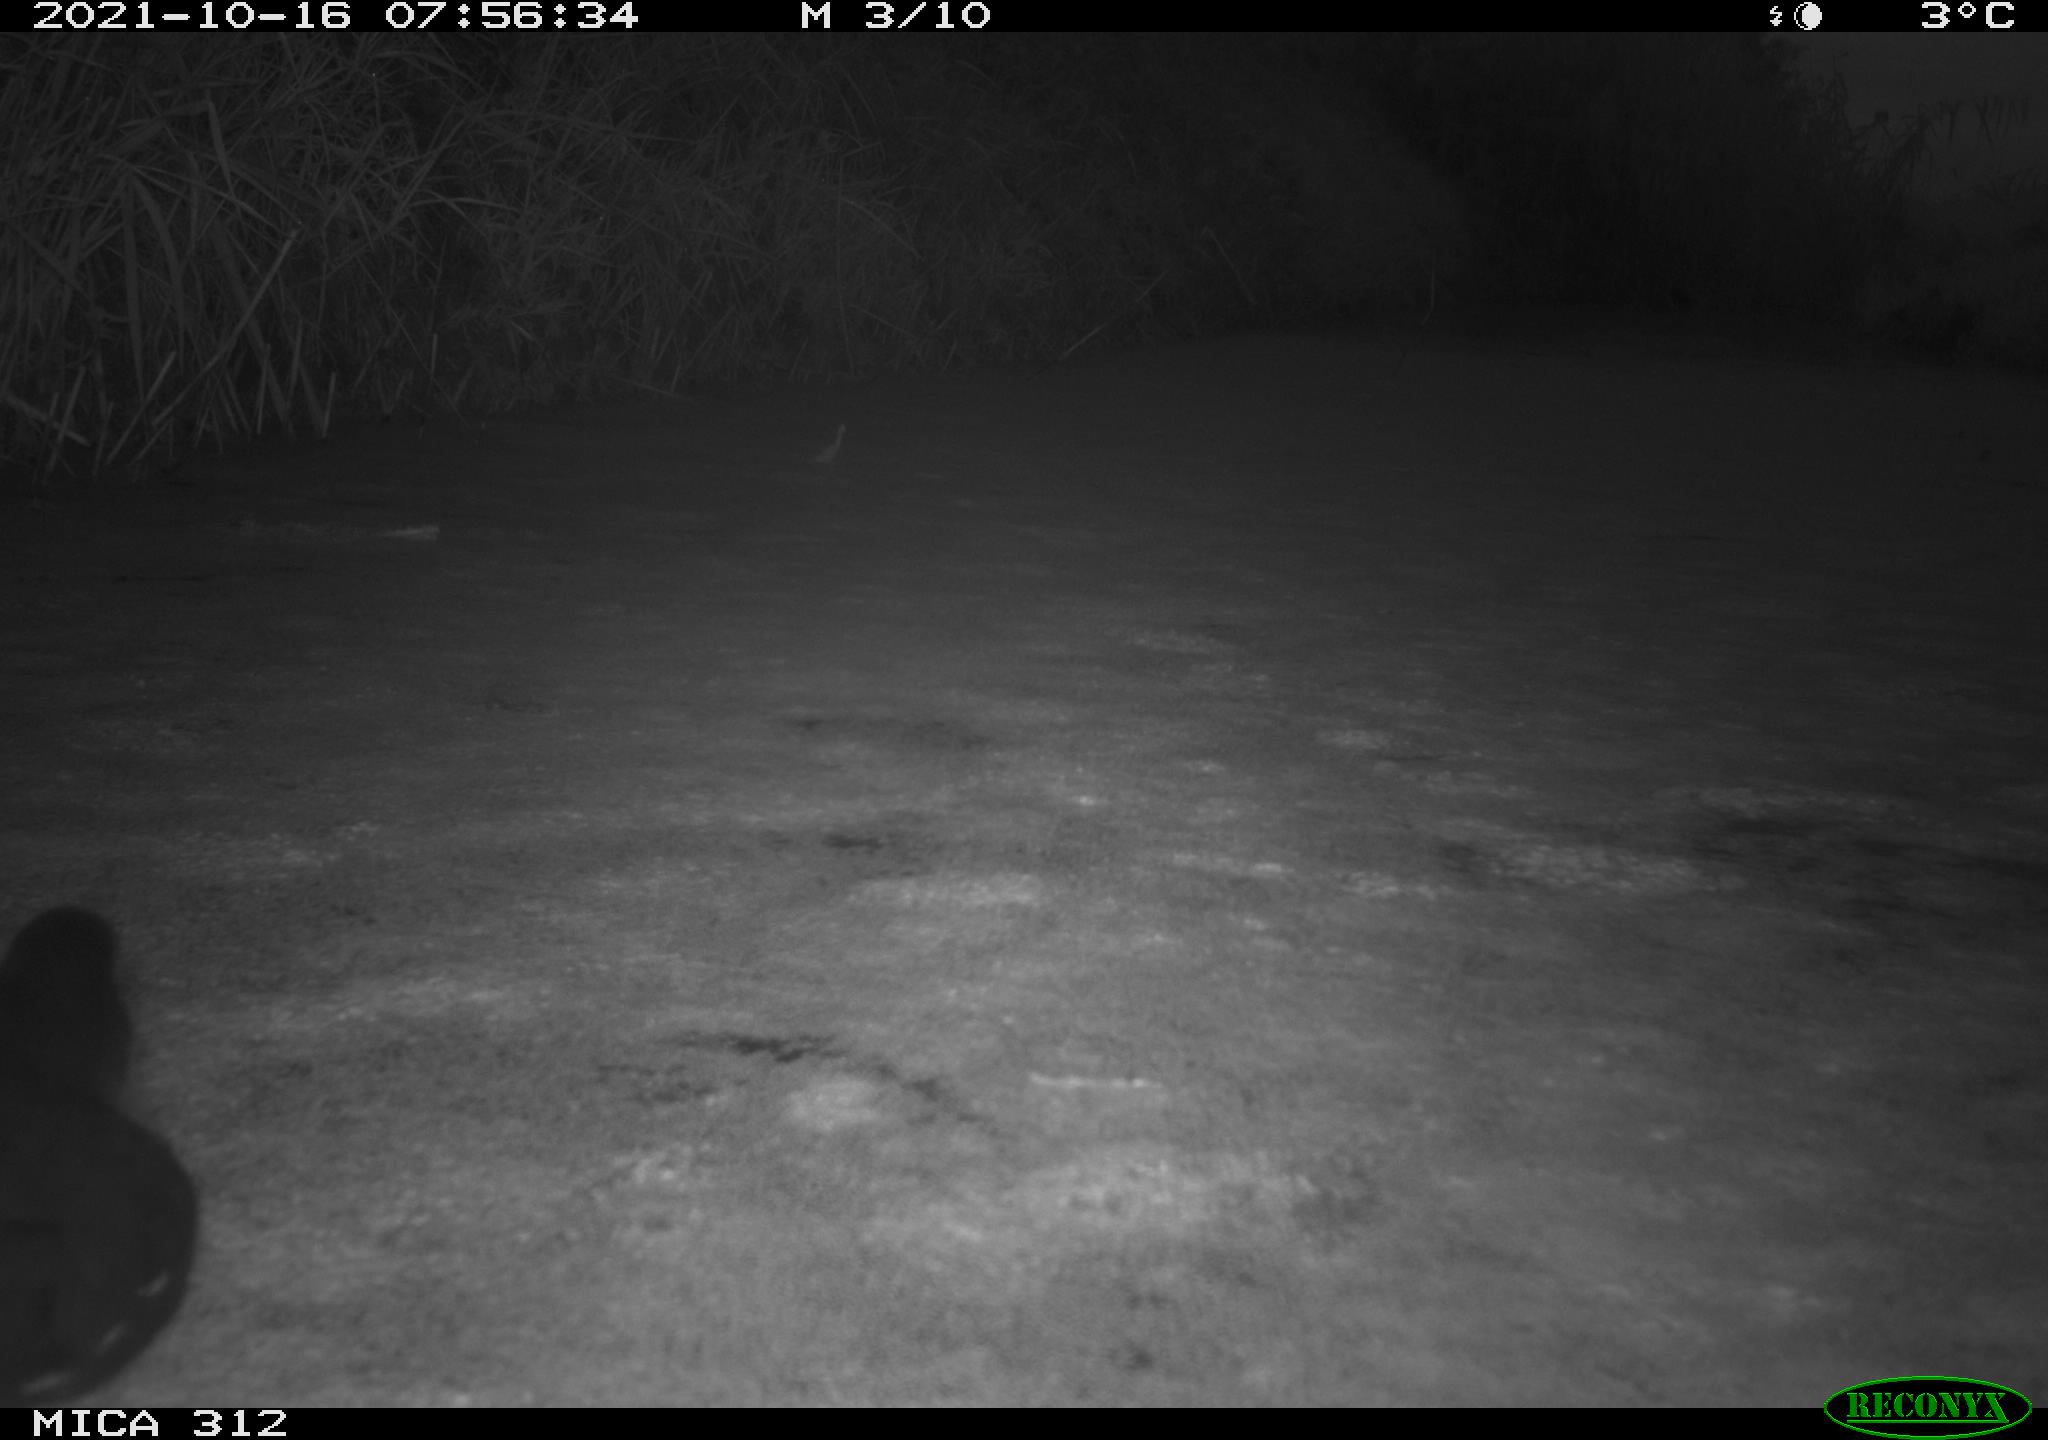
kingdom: Animalia
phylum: Chordata
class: Aves
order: Gruiformes
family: Rallidae
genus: Gallinula
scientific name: Gallinula chloropus
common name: Common moorhen
